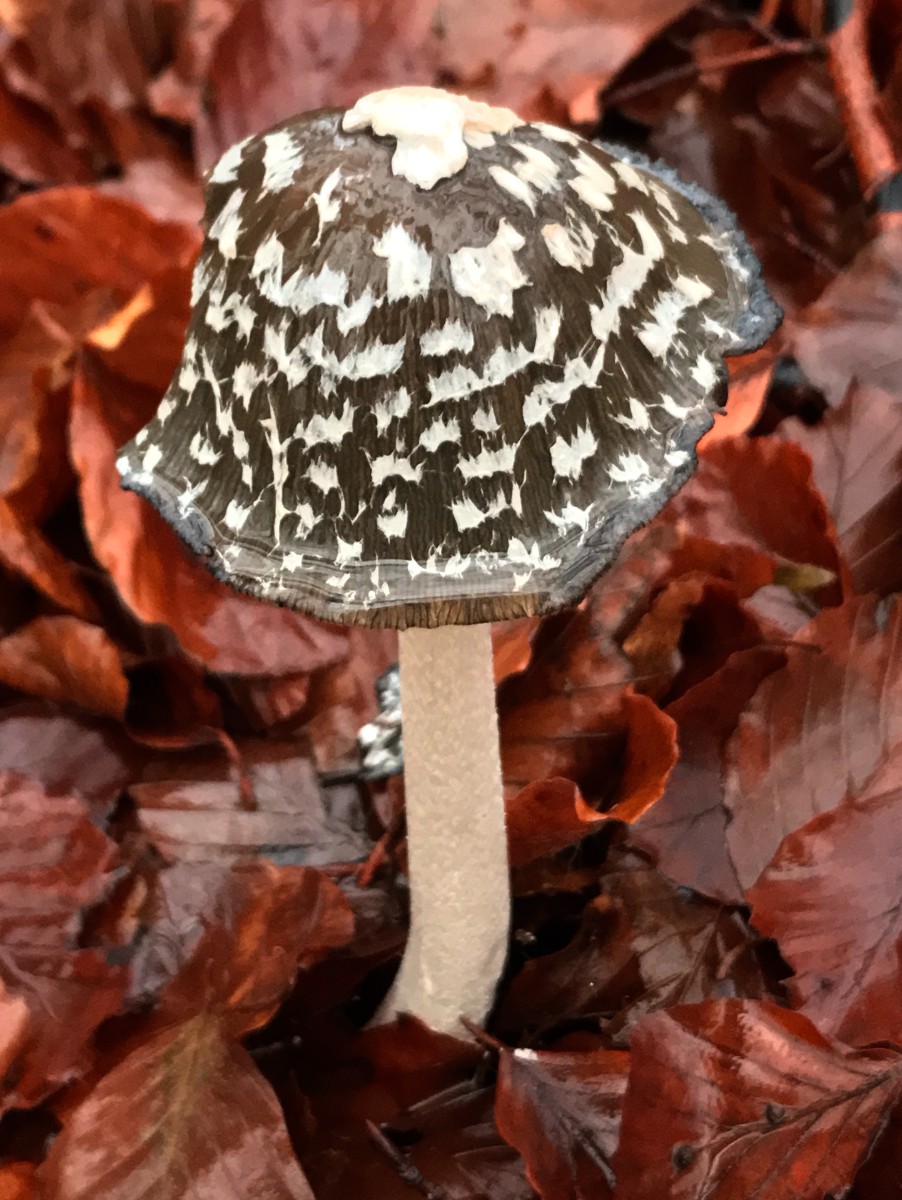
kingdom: Fungi
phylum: Basidiomycota
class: Agaricomycetes
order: Agaricales
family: Psathyrellaceae
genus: Coprinopsis
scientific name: Coprinopsis picacea
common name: skade-blækhat
